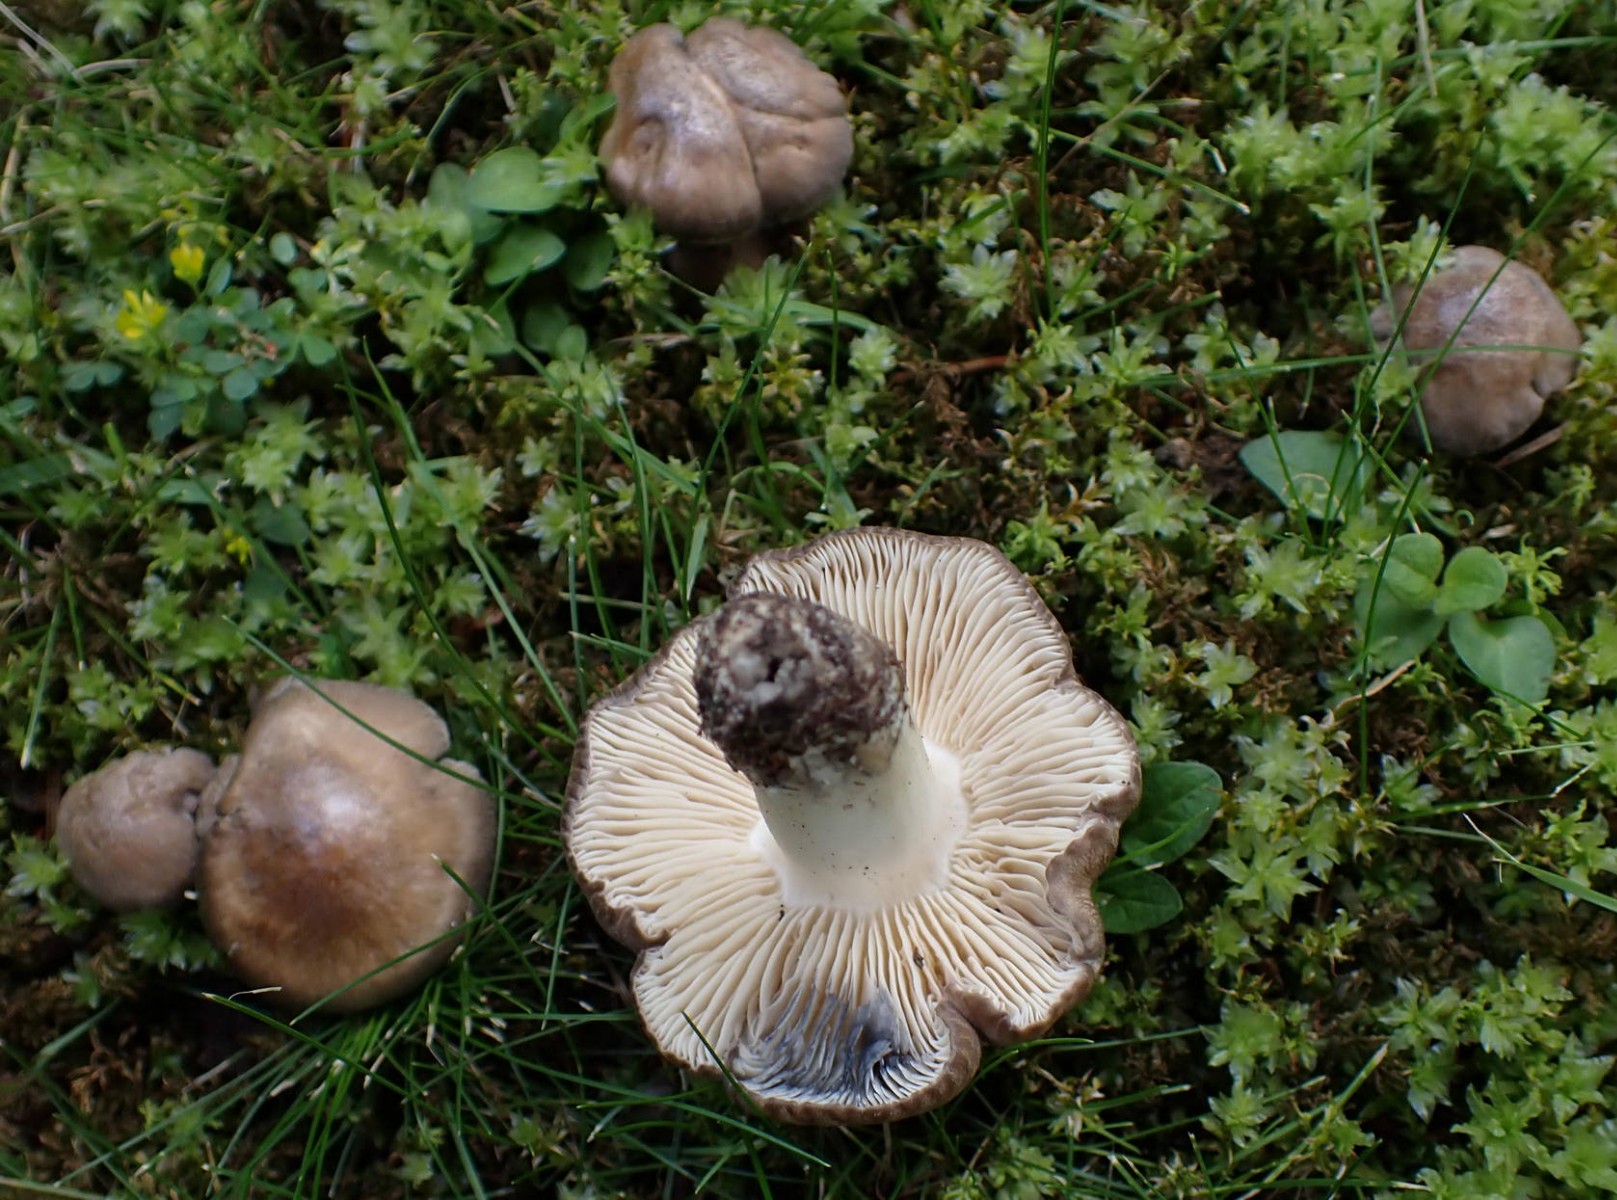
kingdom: Fungi
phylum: Basidiomycota
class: Agaricomycetes
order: Agaricales
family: Lyophyllaceae
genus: Lyophyllum
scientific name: Lyophyllum paelochroum
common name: blånende gråblad
